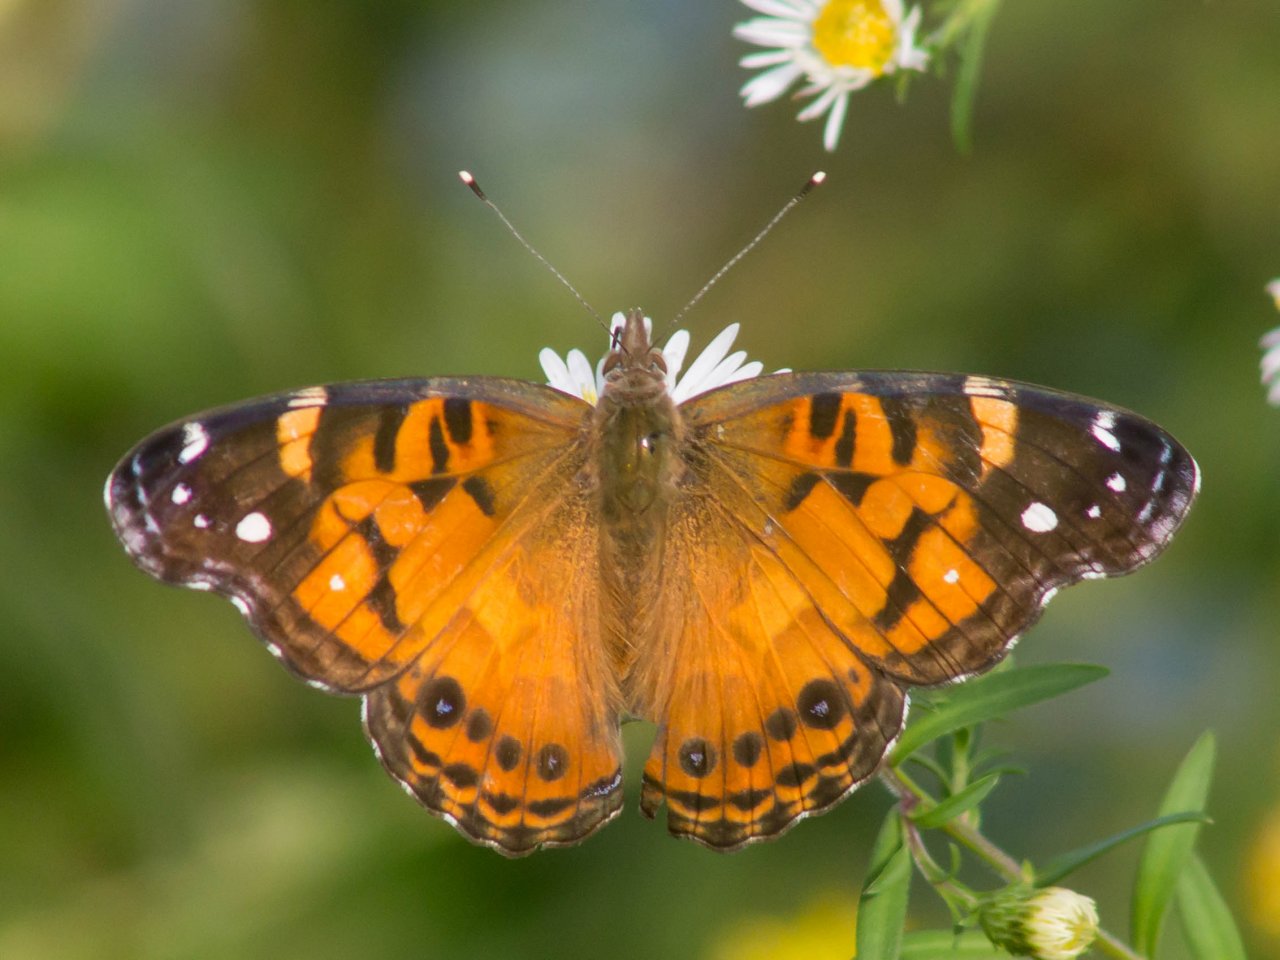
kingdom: Animalia
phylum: Arthropoda
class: Insecta
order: Lepidoptera
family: Nymphalidae
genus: Vanessa
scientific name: Vanessa virginiensis
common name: American Lady
